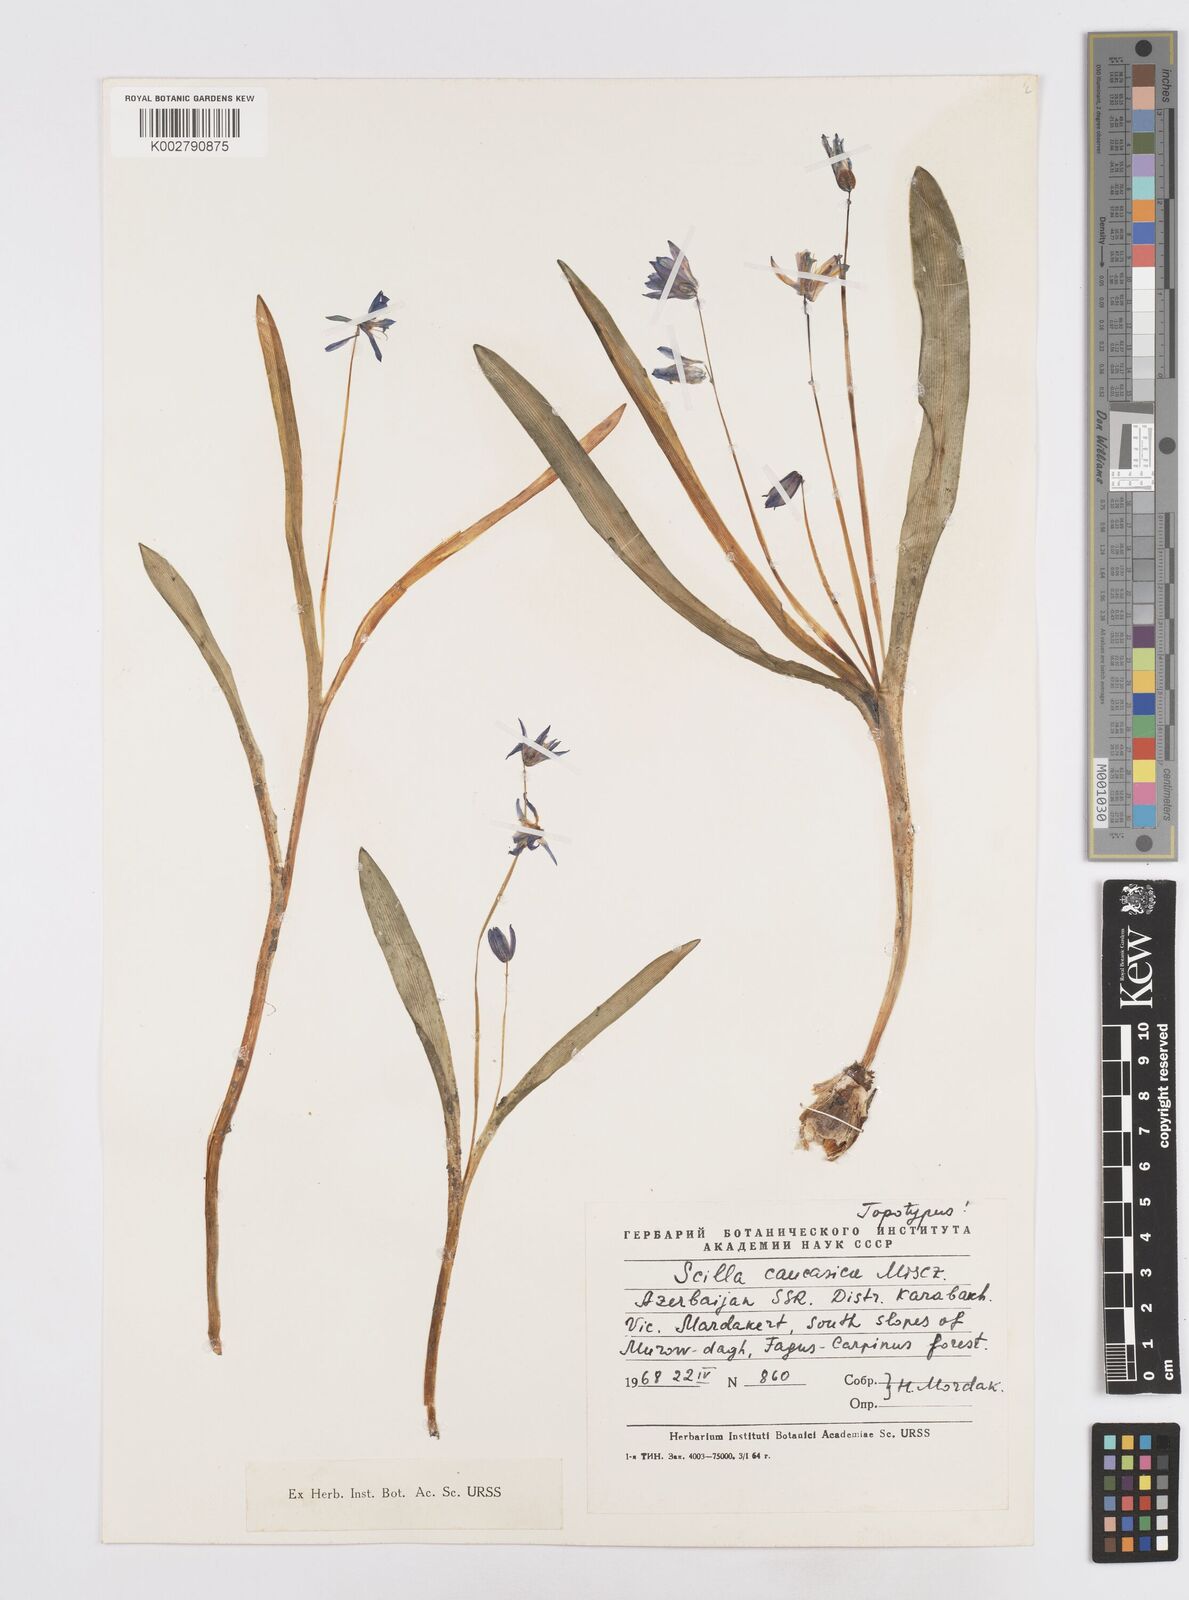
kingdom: Plantae
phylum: Tracheophyta
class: Liliopsida
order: Asparagales
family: Asparagaceae
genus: Scilla
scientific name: Scilla siberica
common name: Siberian squill
